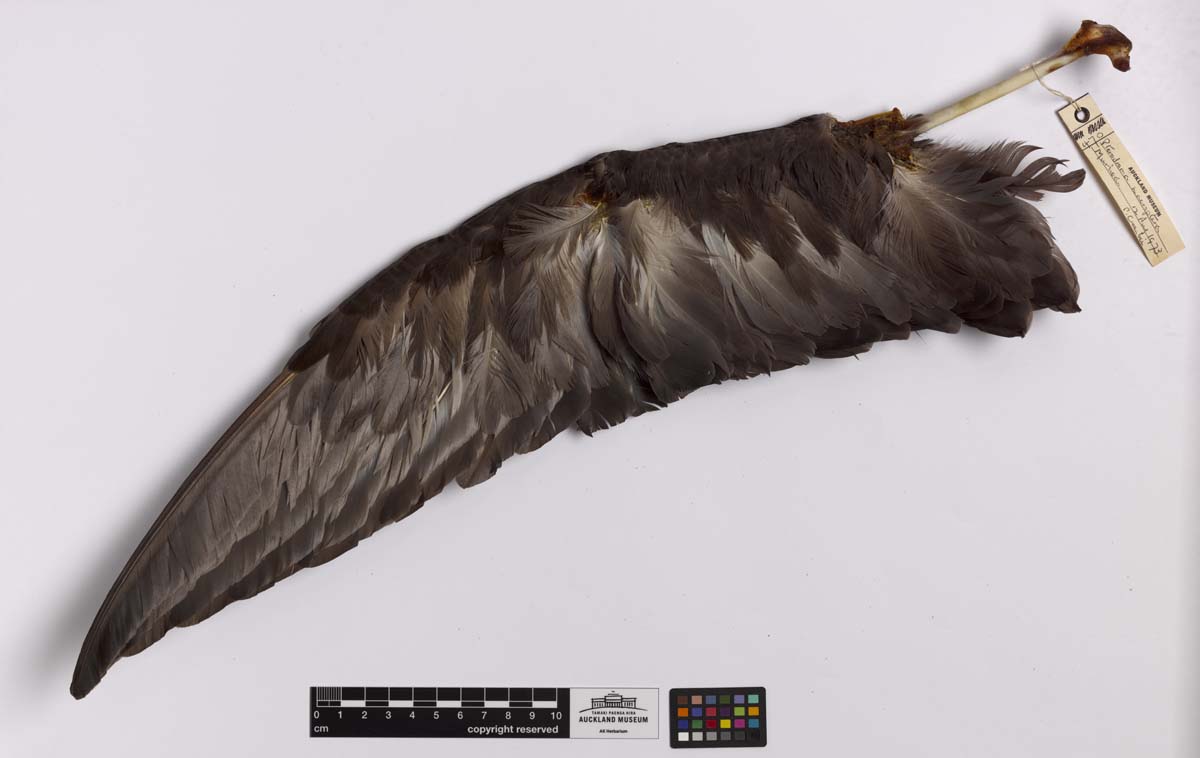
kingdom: Animalia
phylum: Chordata
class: Aves
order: Procellariiformes
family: Procellariidae
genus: Pterodroma
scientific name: Pterodroma macroptera
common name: Great-winged petrel
